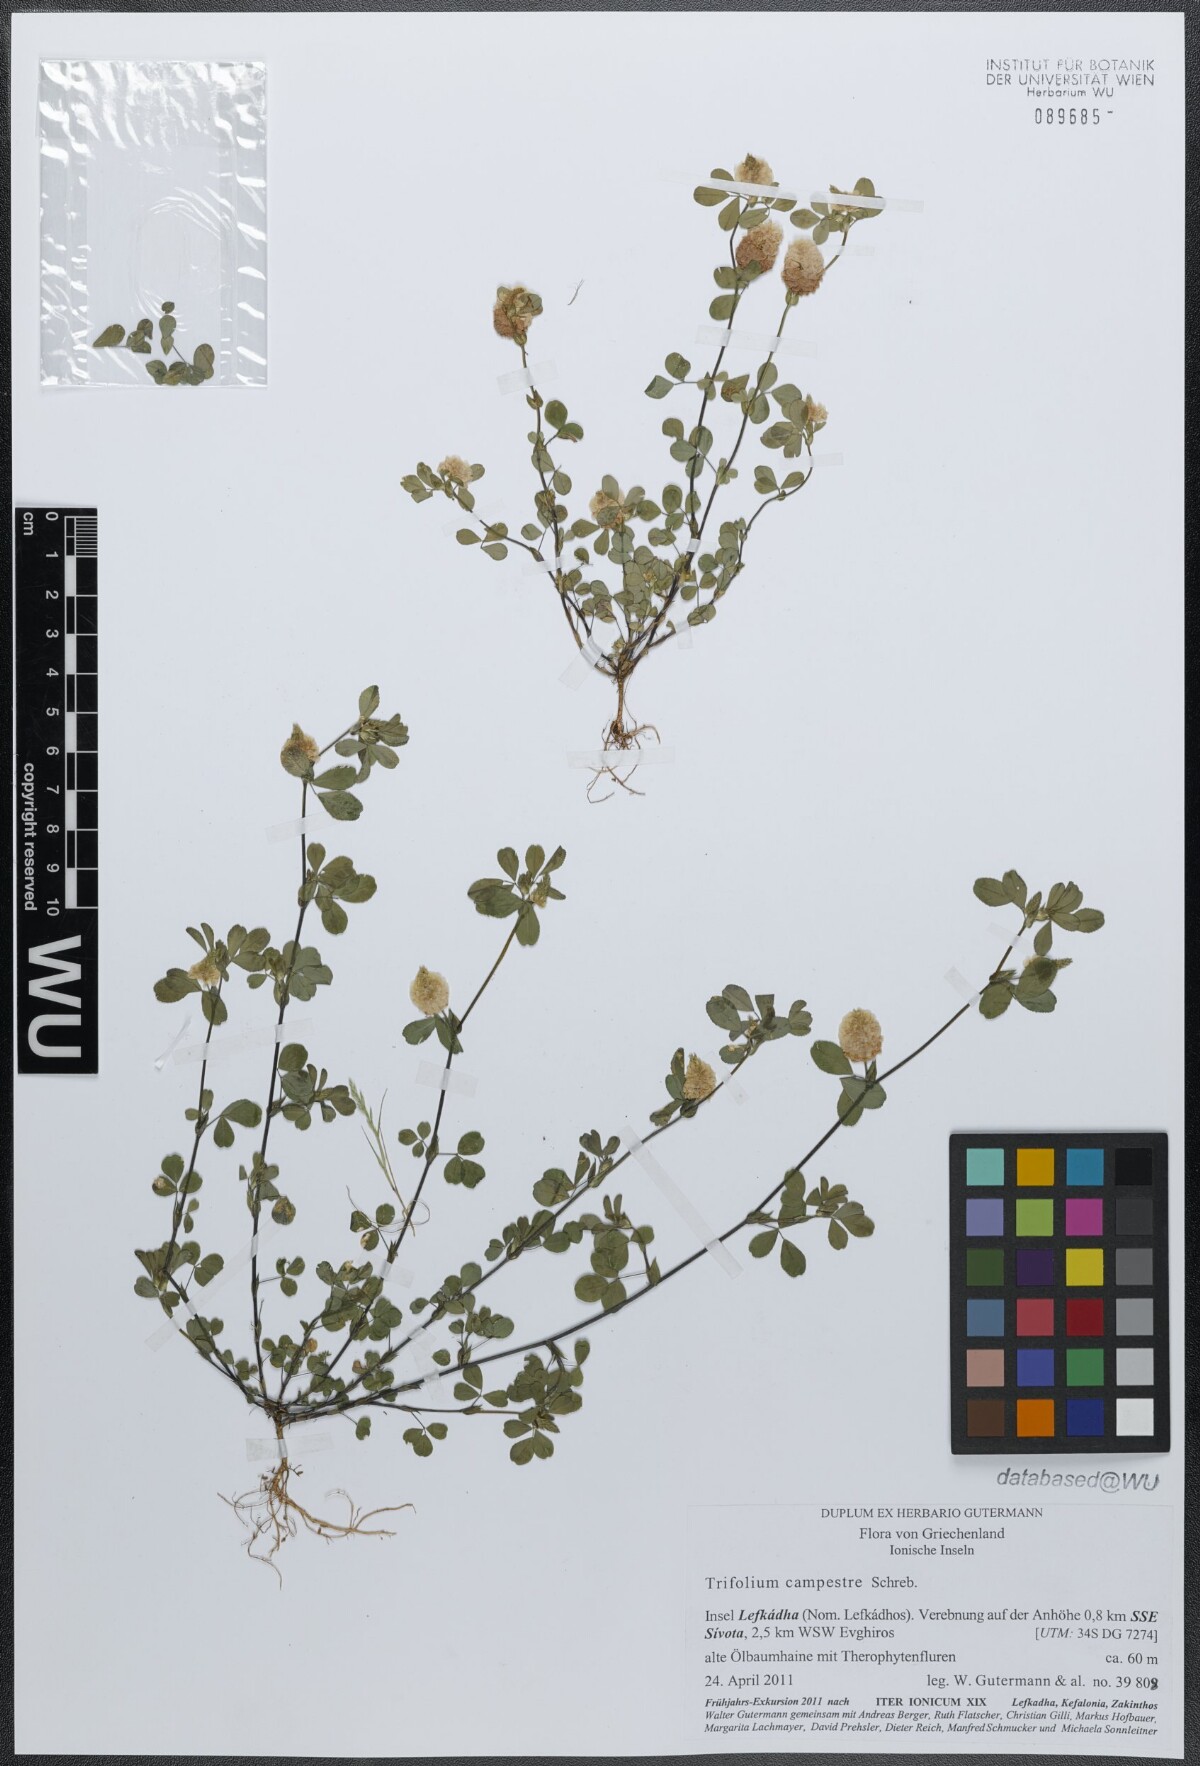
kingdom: Plantae
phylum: Tracheophyta
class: Magnoliopsida
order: Fabales
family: Fabaceae
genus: Trifolium
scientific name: Trifolium campestre
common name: Field clover
